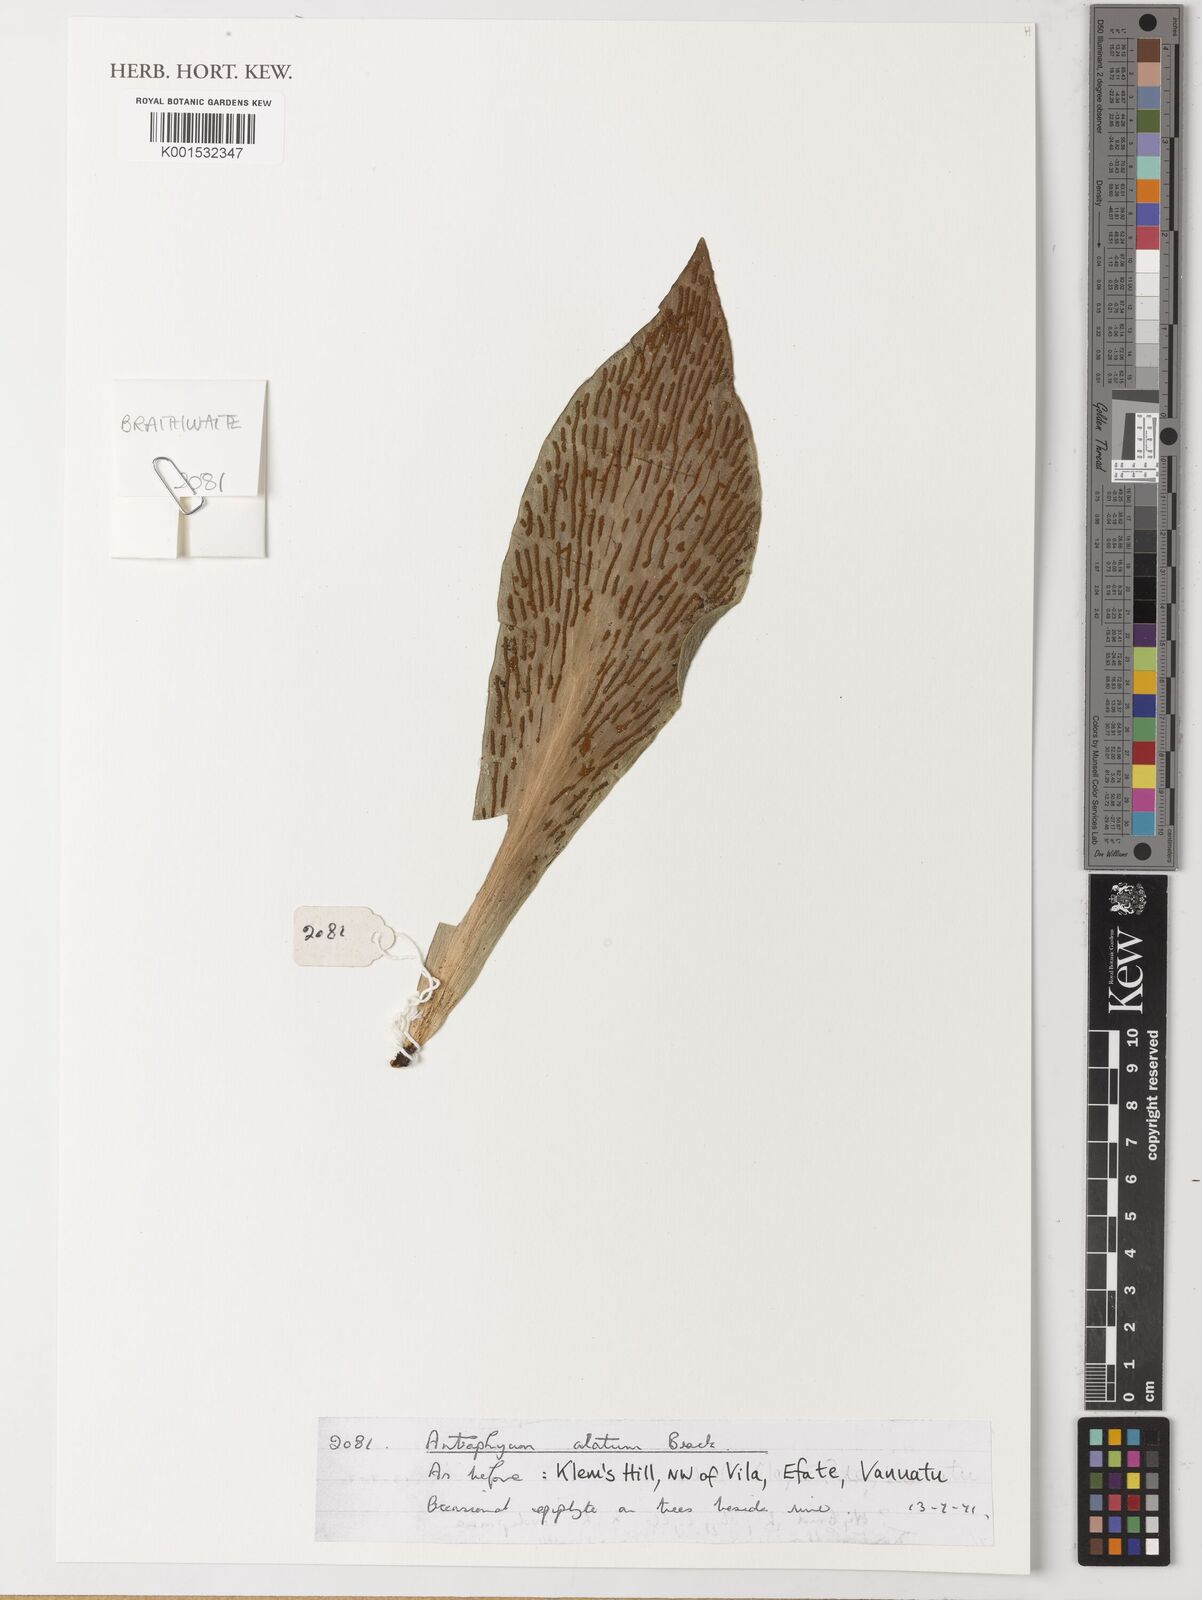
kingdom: Plantae
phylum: Tracheophyta
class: Polypodiopsida
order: Polypodiales
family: Pteridaceae
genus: Antrophyum
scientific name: Antrophyum callifolium
